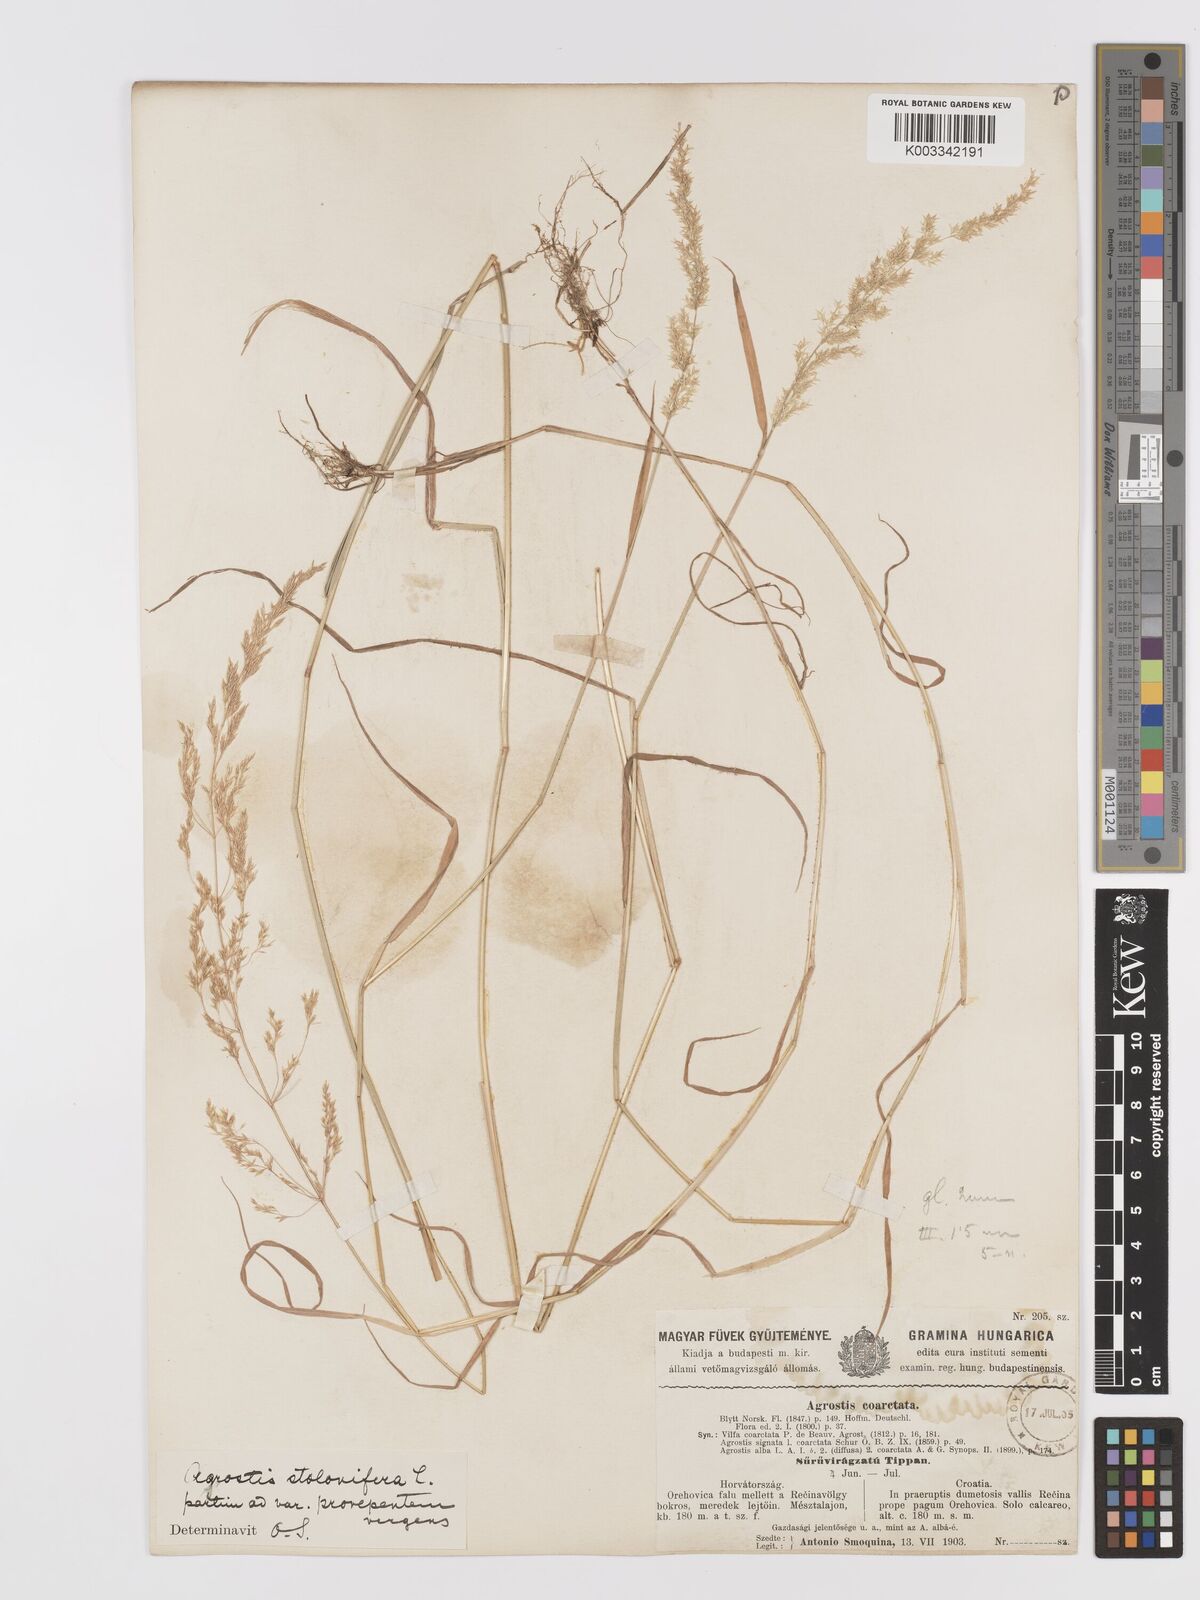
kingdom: Plantae
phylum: Tracheophyta
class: Liliopsida
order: Poales
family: Poaceae
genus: Agrostis
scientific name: Agrostis stolonifera
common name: Creeping bentgrass
